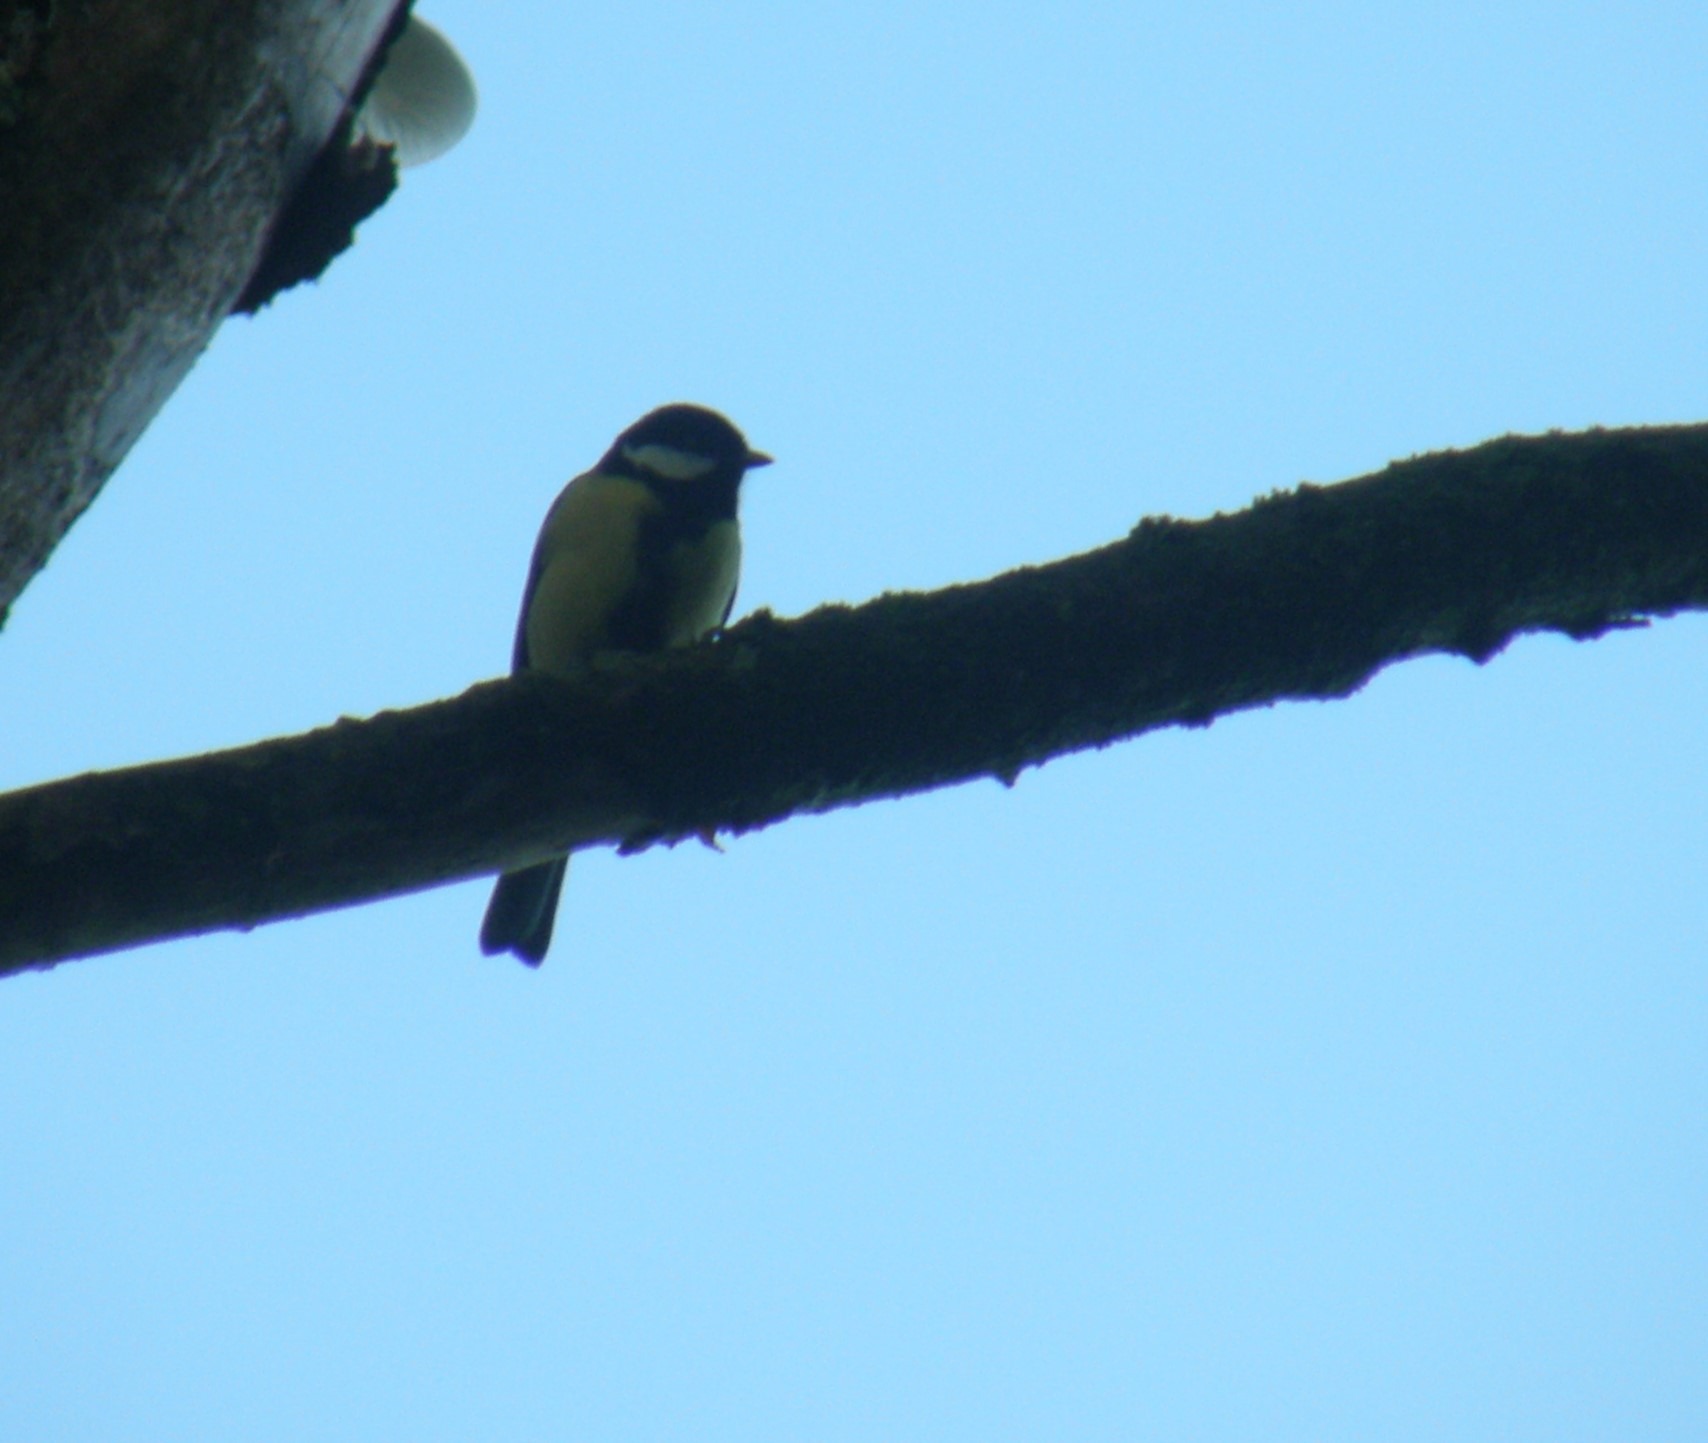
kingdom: Animalia
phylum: Chordata
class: Aves
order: Passeriformes
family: Paridae
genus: Parus
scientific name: Parus major
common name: Musvit
